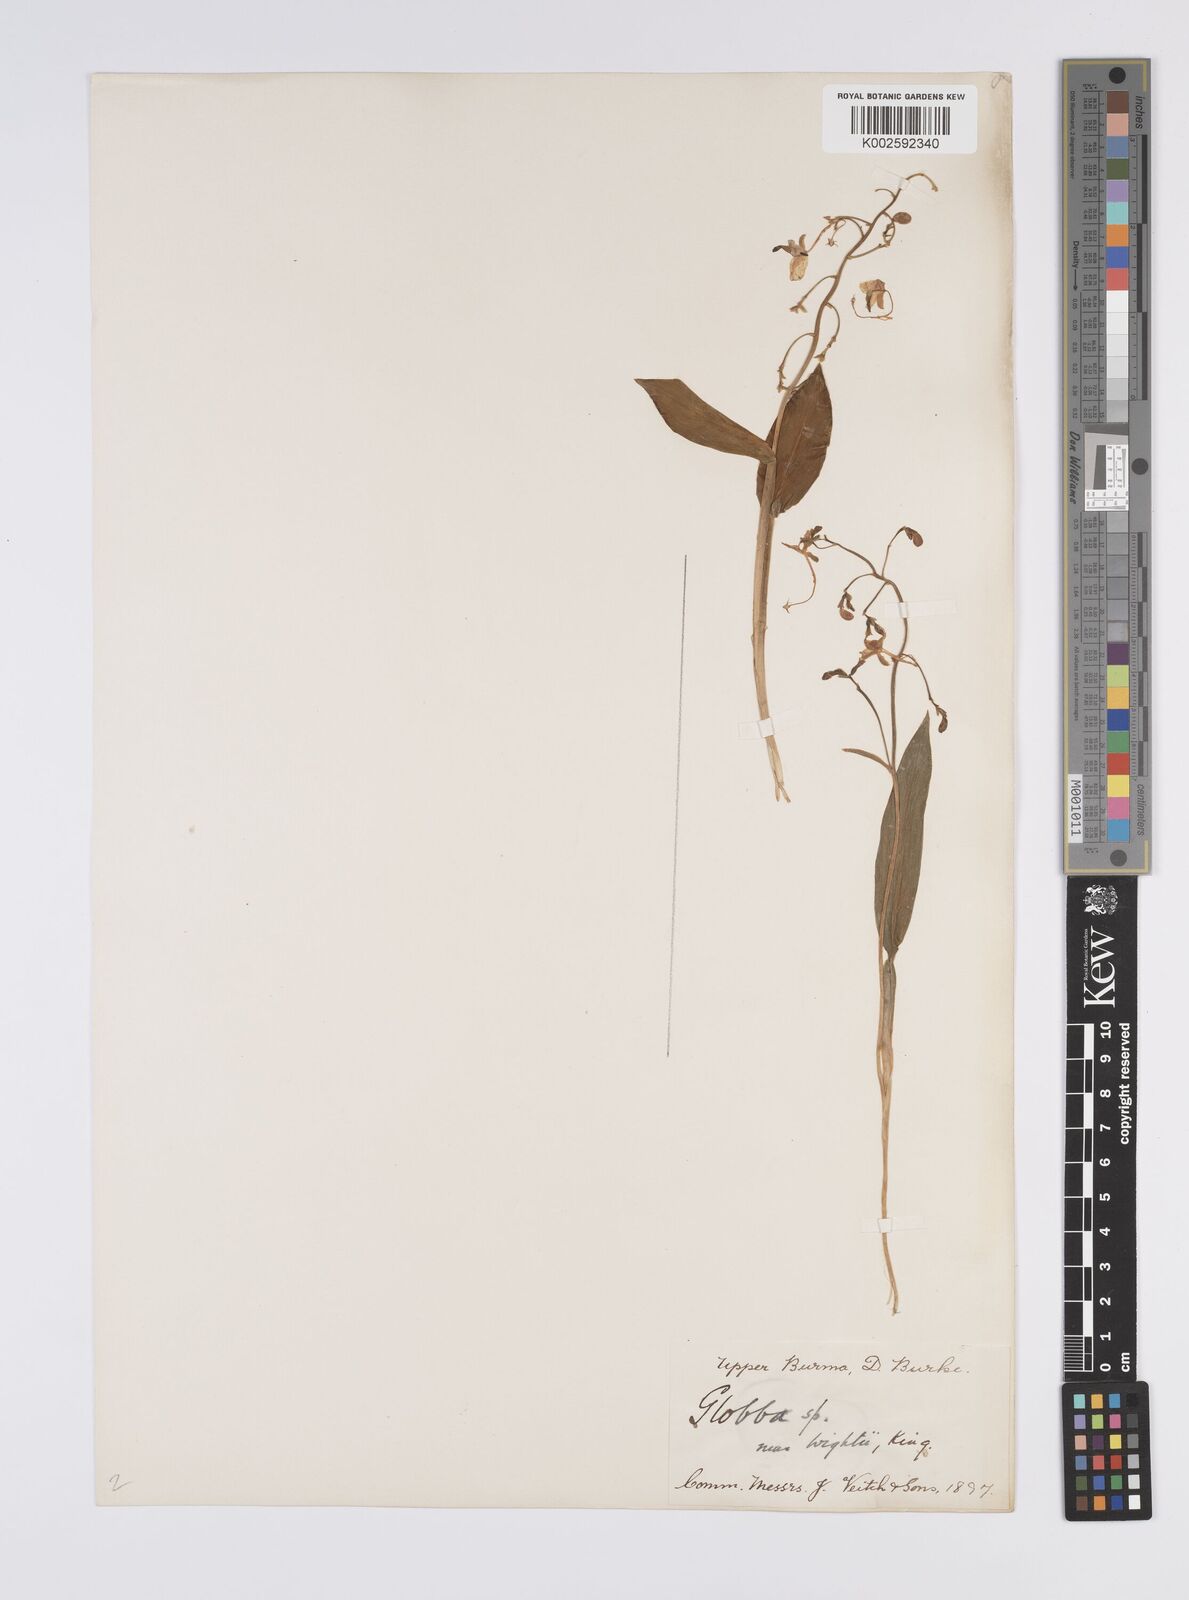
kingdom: Plantae
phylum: Tracheophyta
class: Liliopsida
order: Zingiberales
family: Zingiberaceae
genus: Globba
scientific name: Globba
